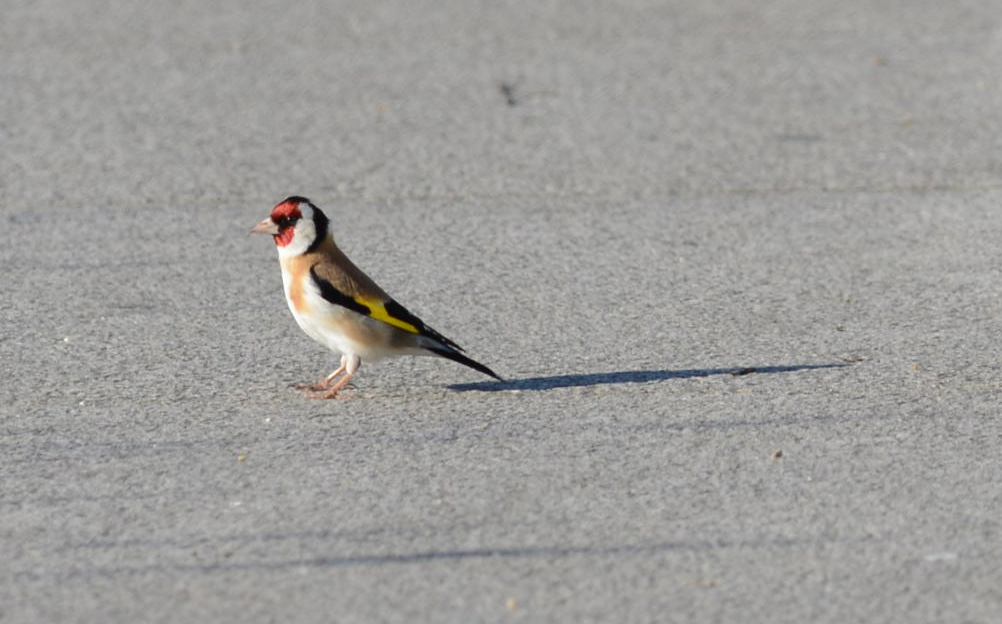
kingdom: Animalia
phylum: Chordata
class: Aves
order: Passeriformes
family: Fringillidae
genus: Carduelis
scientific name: Carduelis carduelis
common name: European goldfinch
